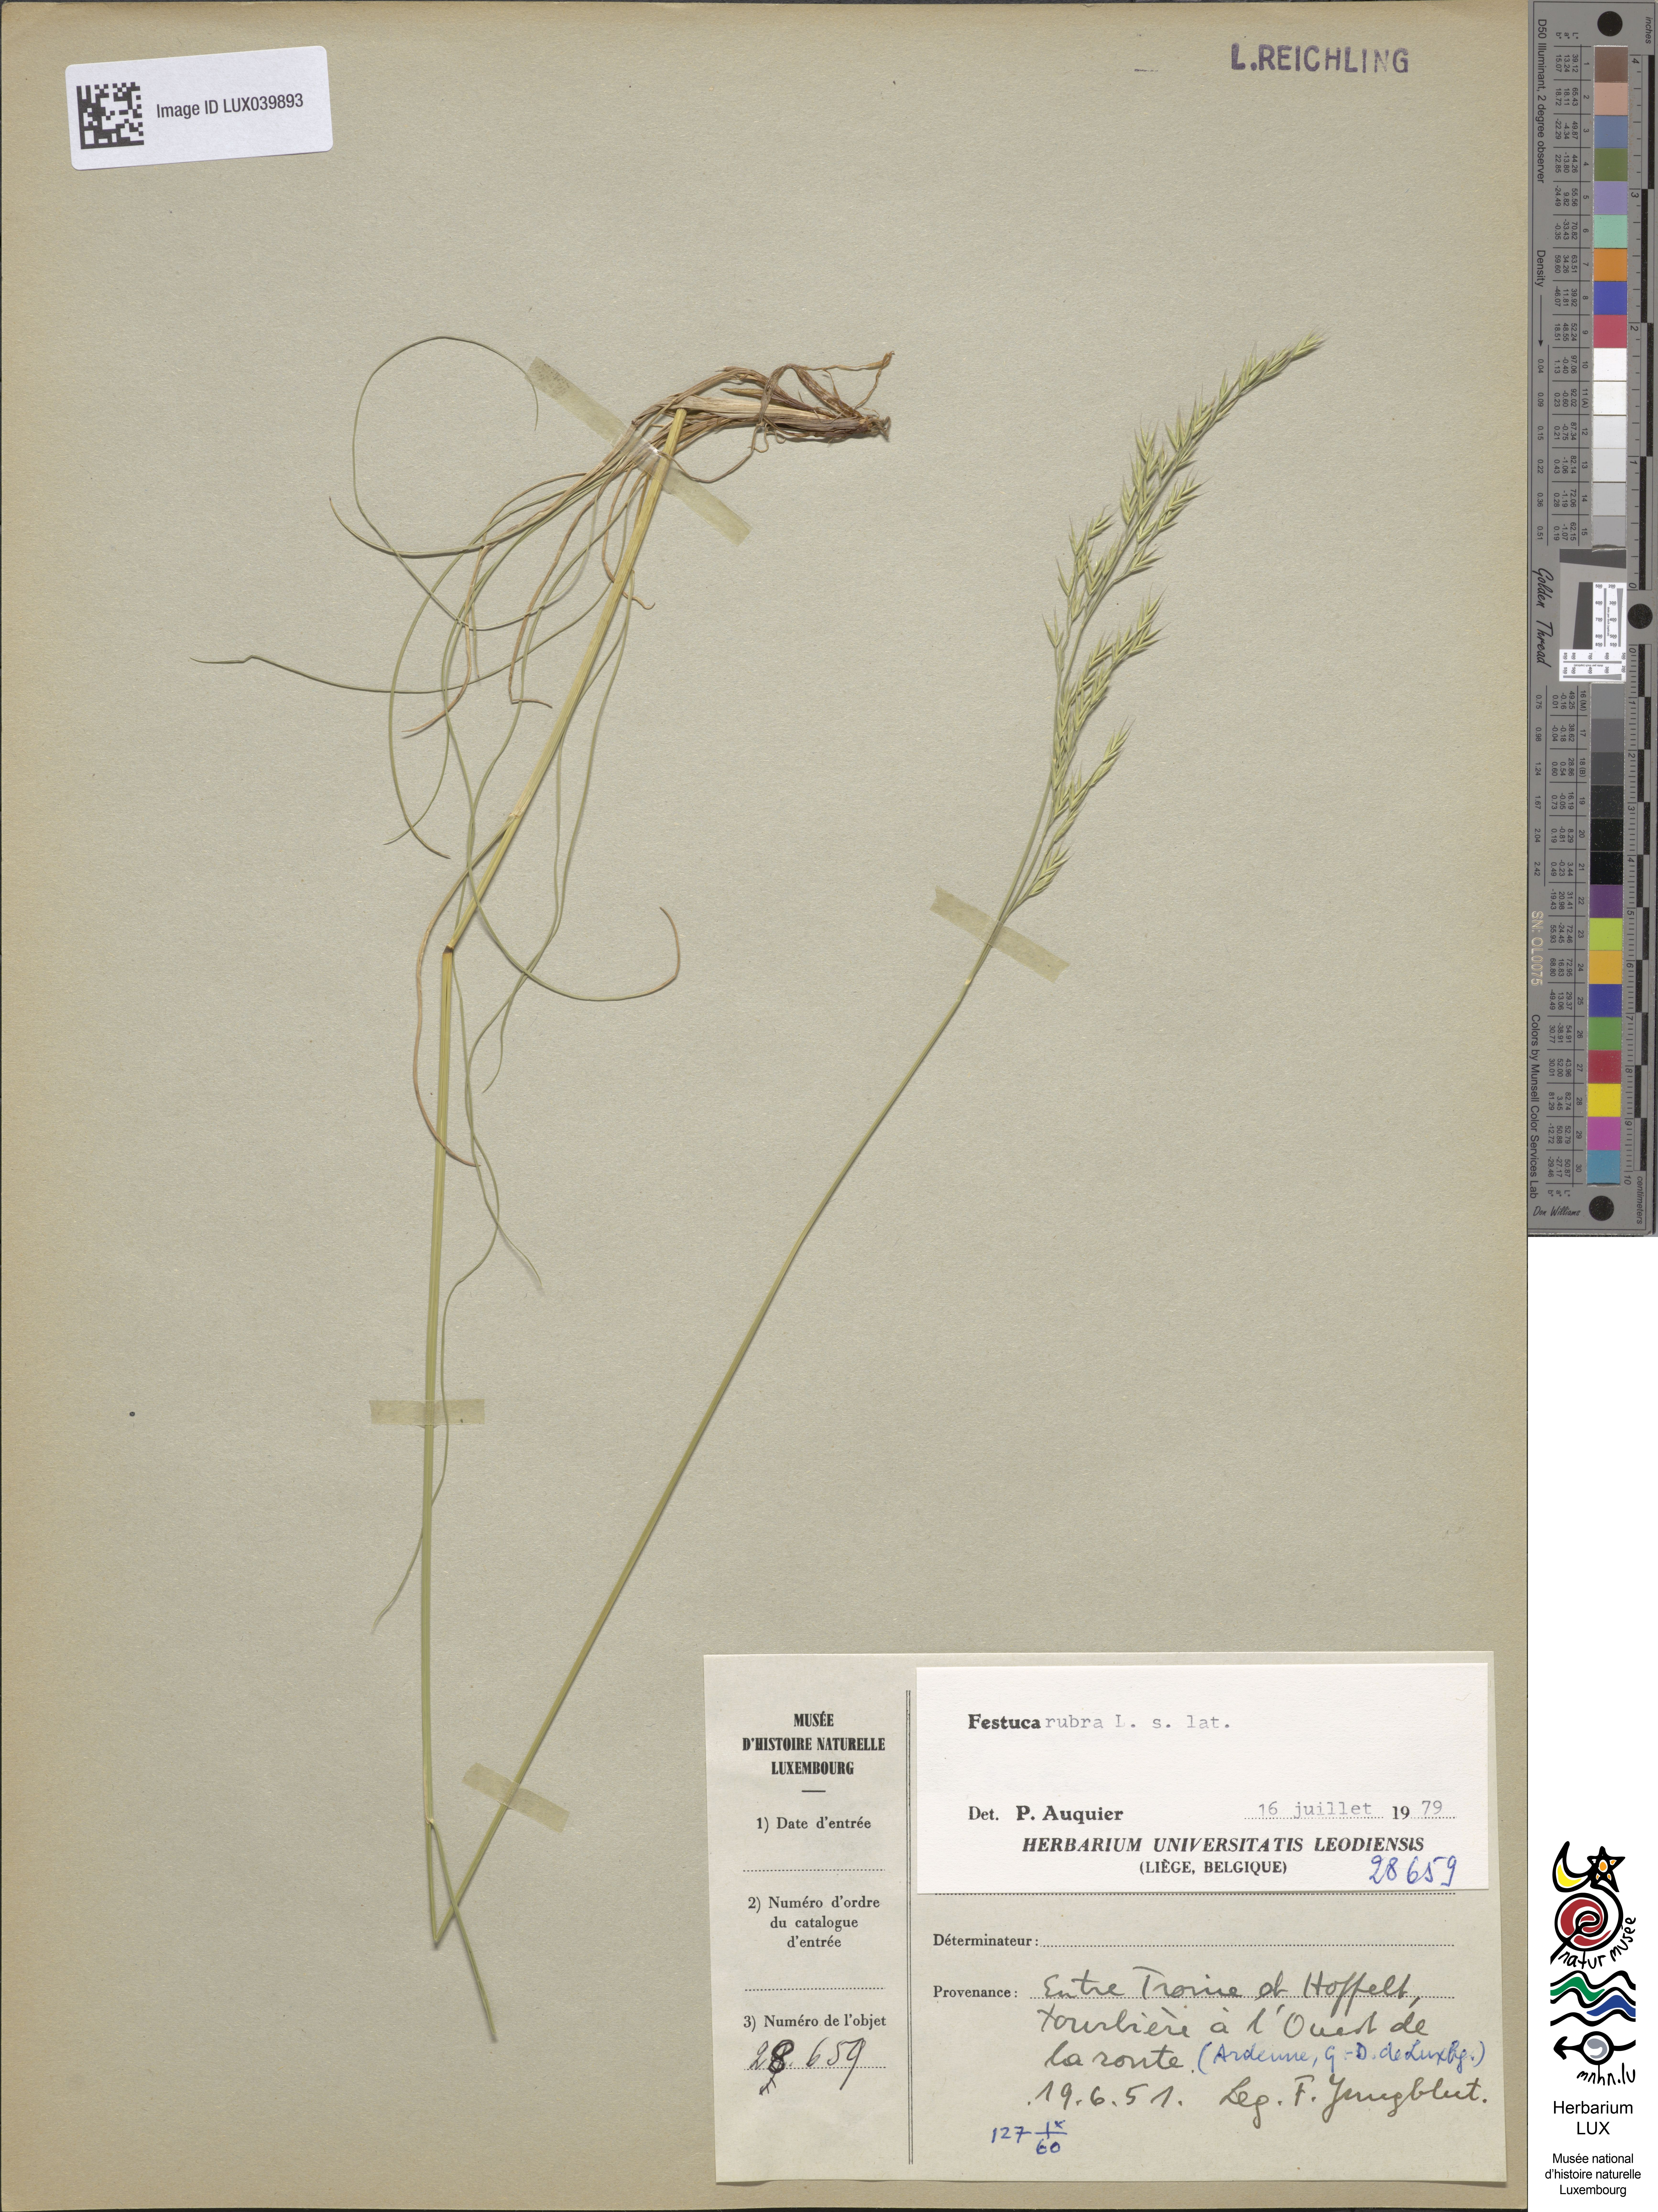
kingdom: Plantae
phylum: Tracheophyta
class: Liliopsida
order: Poales
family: Poaceae
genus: Festuca
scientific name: Festuca
